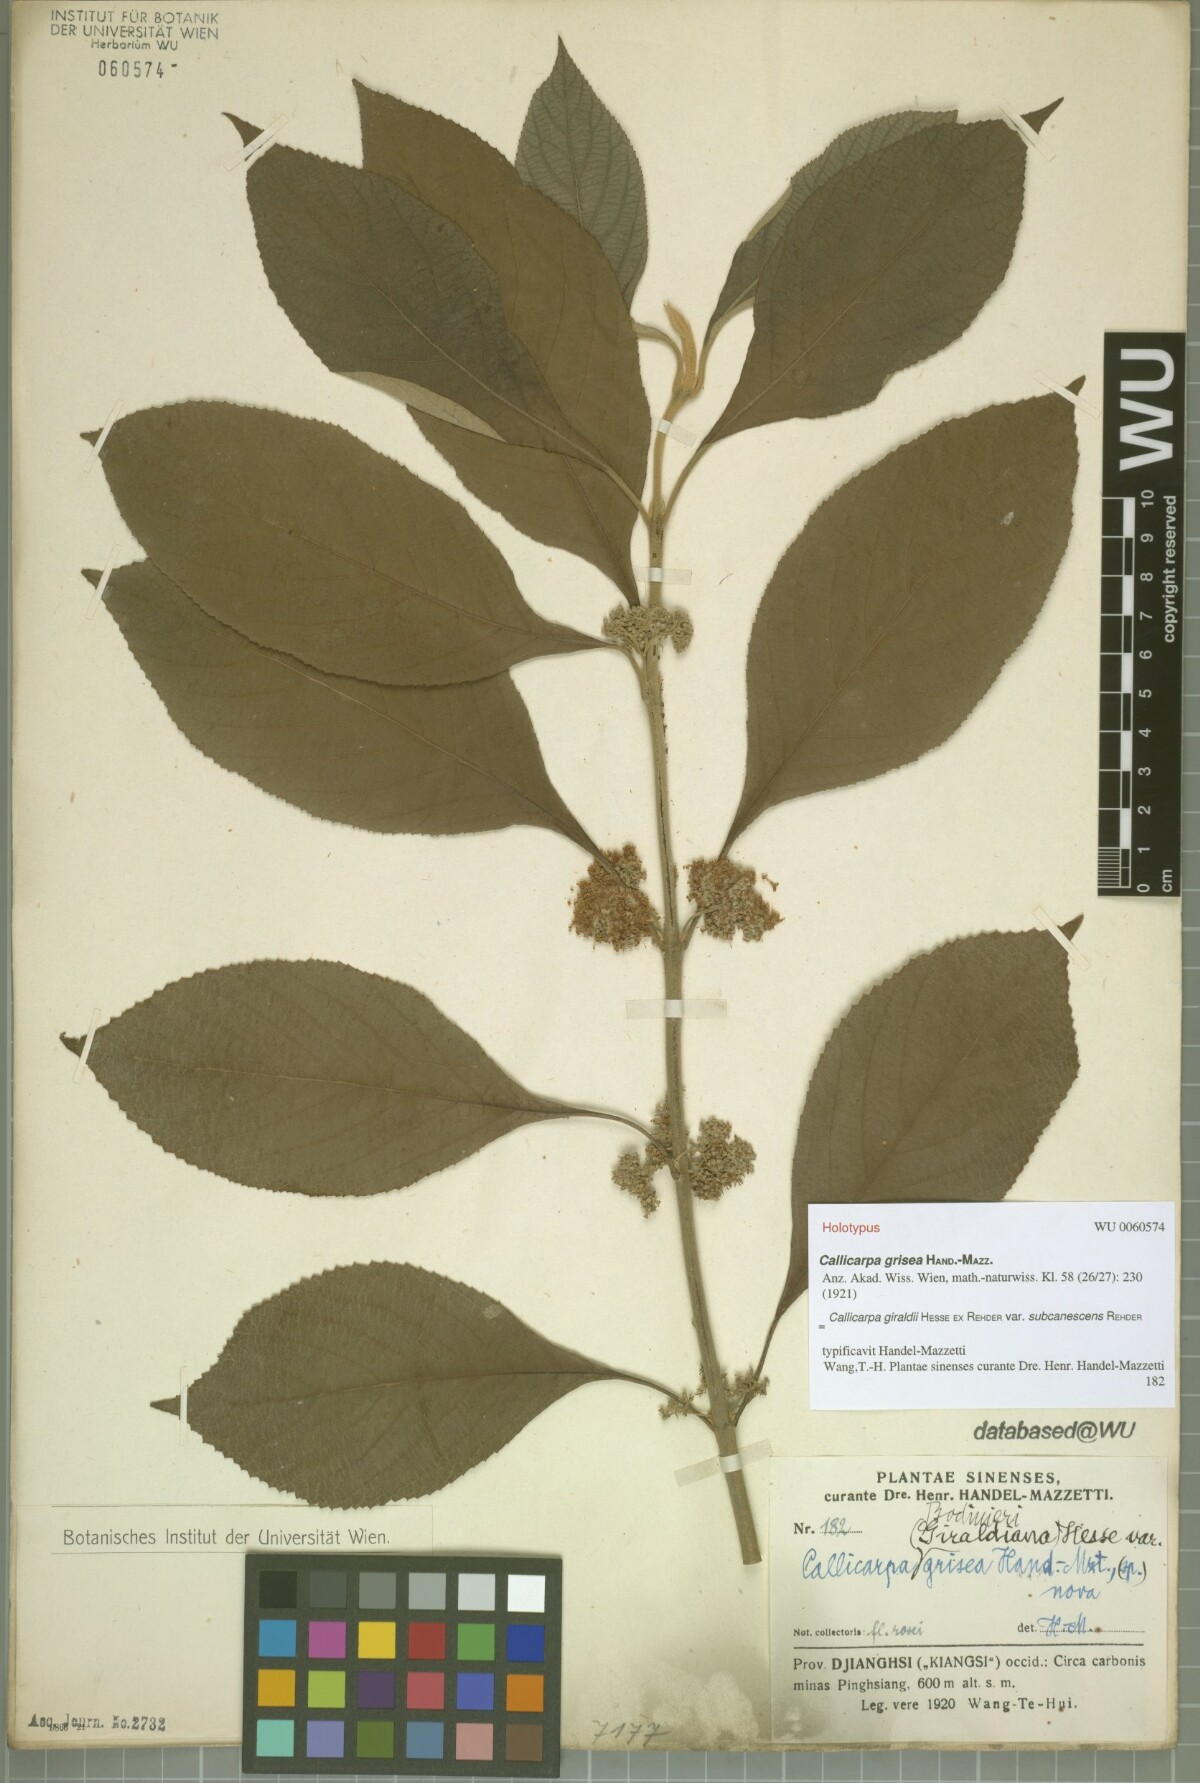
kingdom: Plantae
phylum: Tracheophyta
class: Magnoliopsida
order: Lamiales
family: Lamiaceae
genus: Callicarpa
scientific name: Callicarpa giraldii
